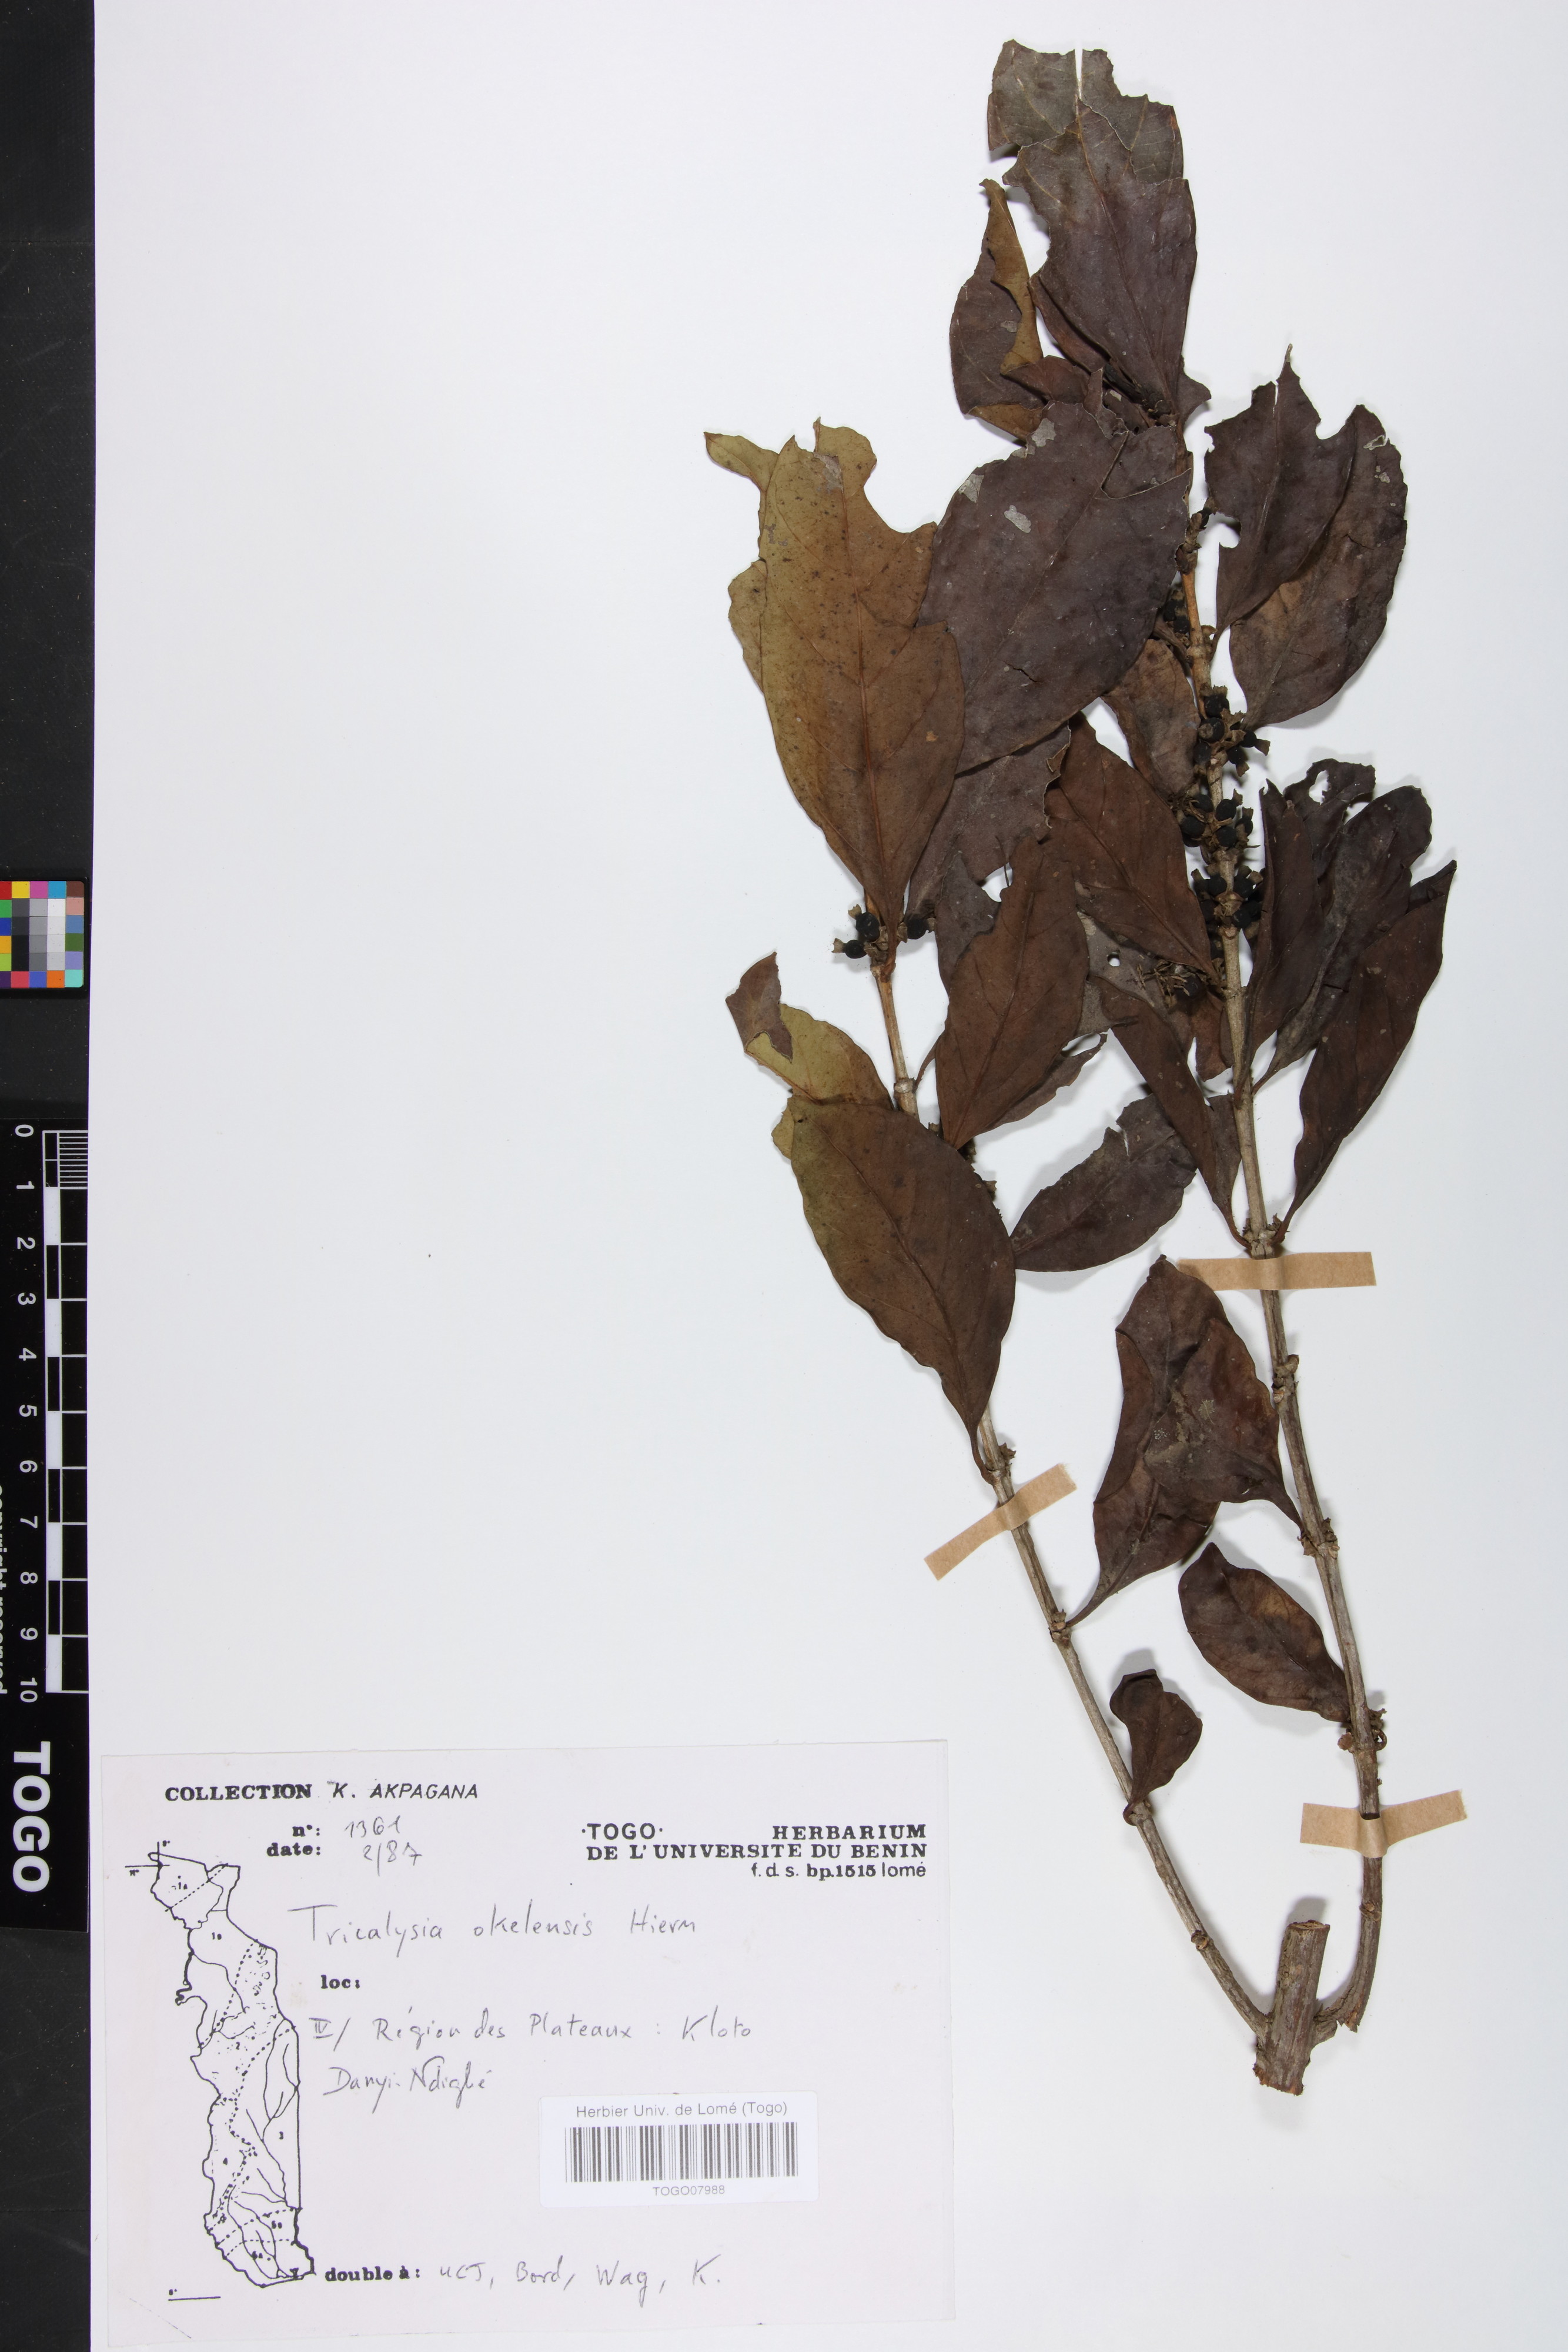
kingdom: Plantae
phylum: Tracheophyta
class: Magnoliopsida
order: Gentianales
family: Rubiaceae
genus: Tricalysia
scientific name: Tricalysia okelensis
